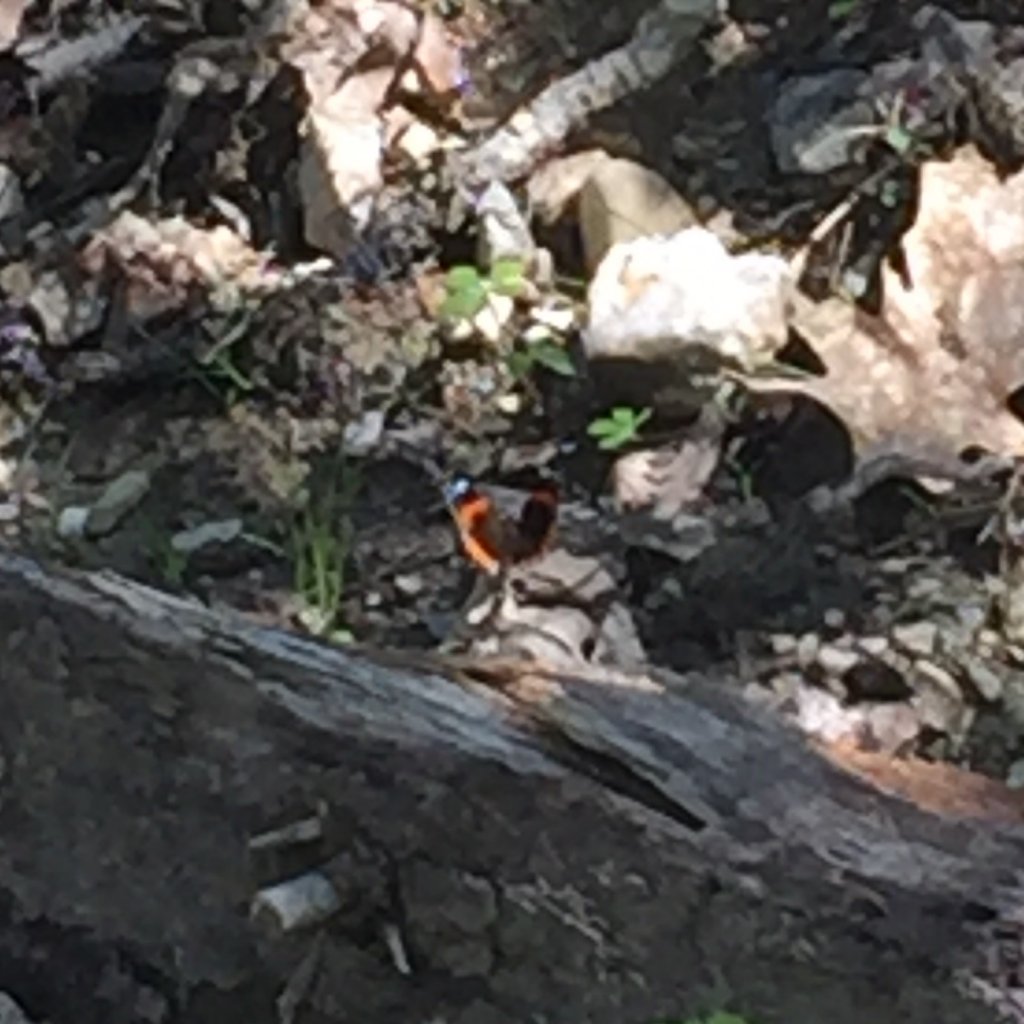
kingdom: Animalia
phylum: Arthropoda
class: Insecta
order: Lepidoptera
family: Nymphalidae
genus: Vanessa
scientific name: Vanessa atalanta
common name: Red Admiral
